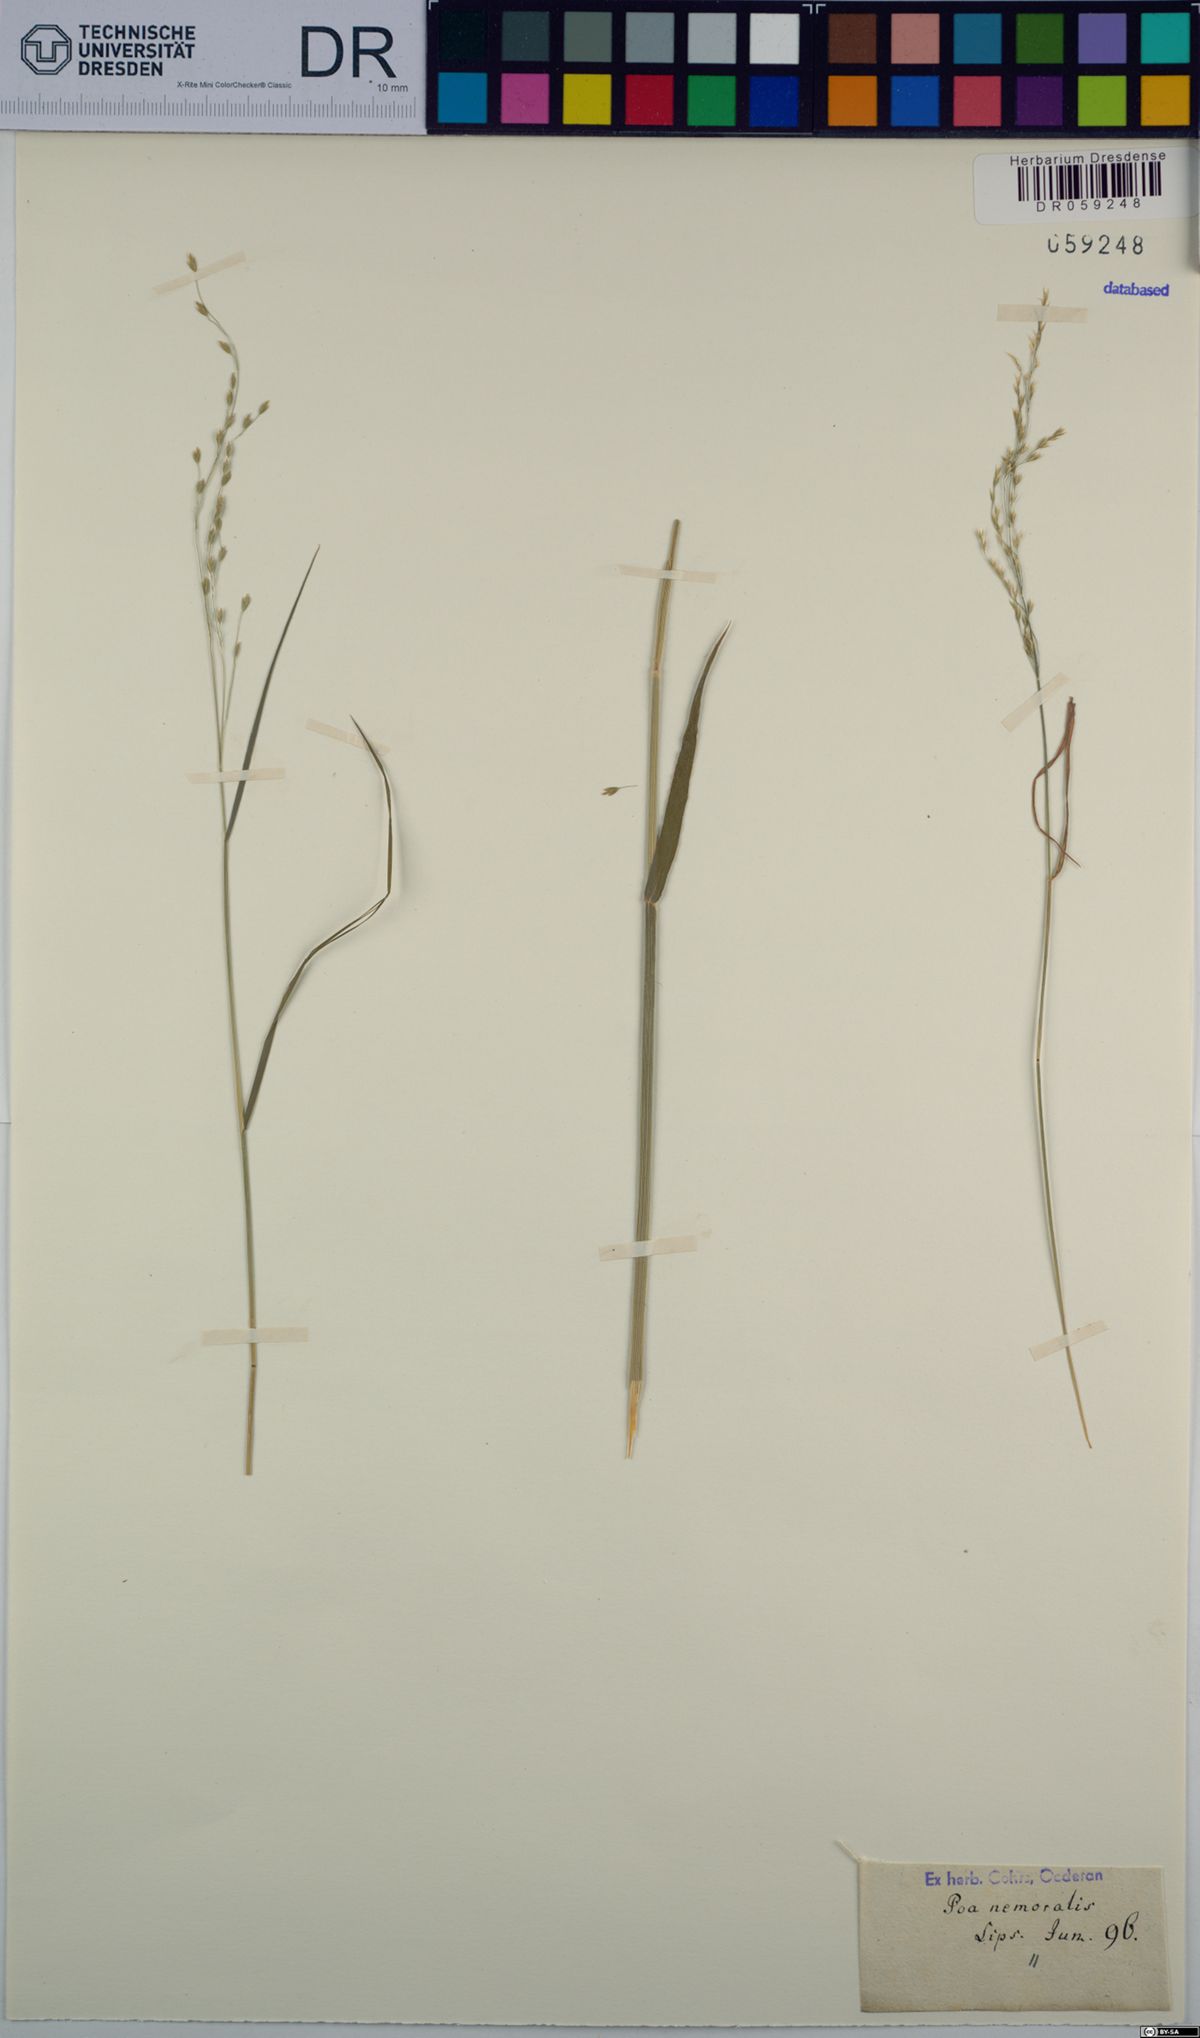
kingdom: Plantae
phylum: Tracheophyta
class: Liliopsida
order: Poales
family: Poaceae
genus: Poa
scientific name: Poa nemoralis
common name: Wood bluegrass
